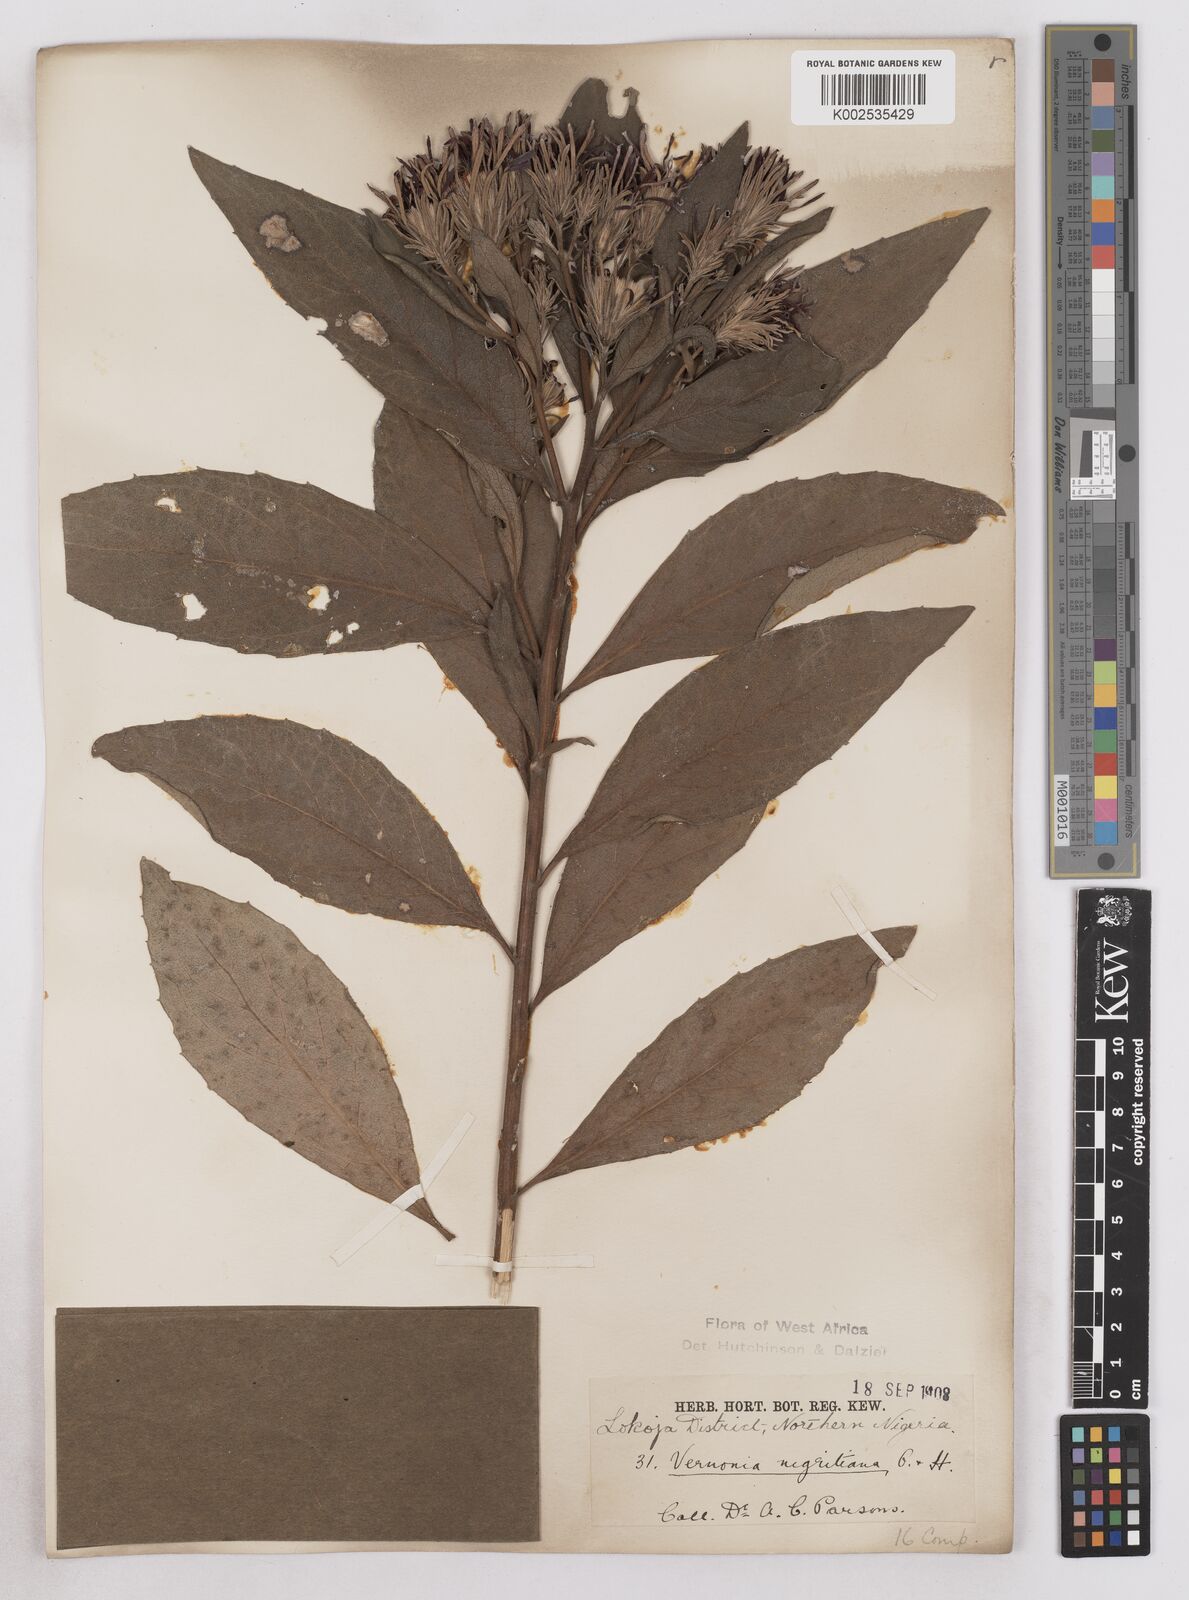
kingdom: Plantae
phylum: Tracheophyta
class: Magnoliopsida
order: Asterales
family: Asteraceae
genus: Linzia
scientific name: Linzia nigritiana
